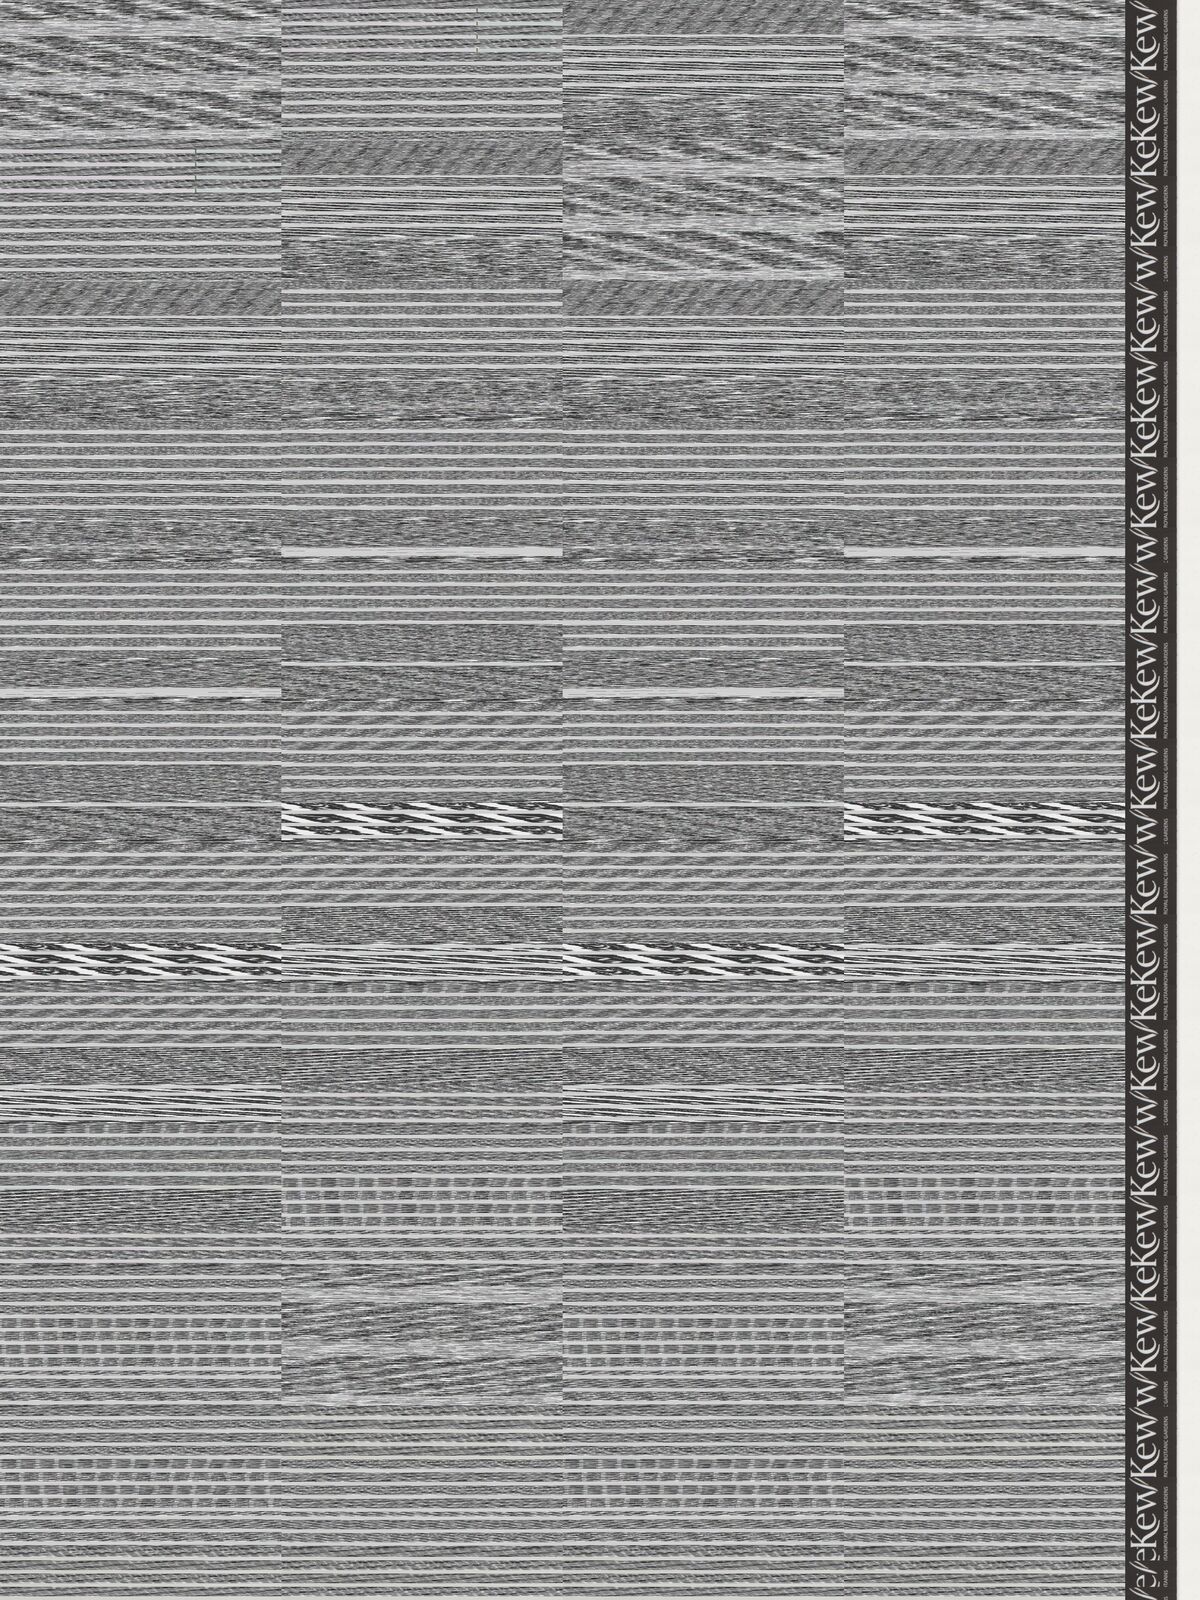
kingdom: Plantae
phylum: Tracheophyta
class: Magnoliopsida
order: Asterales
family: Asteraceae
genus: Acourtia
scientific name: Acourtia turbinata
